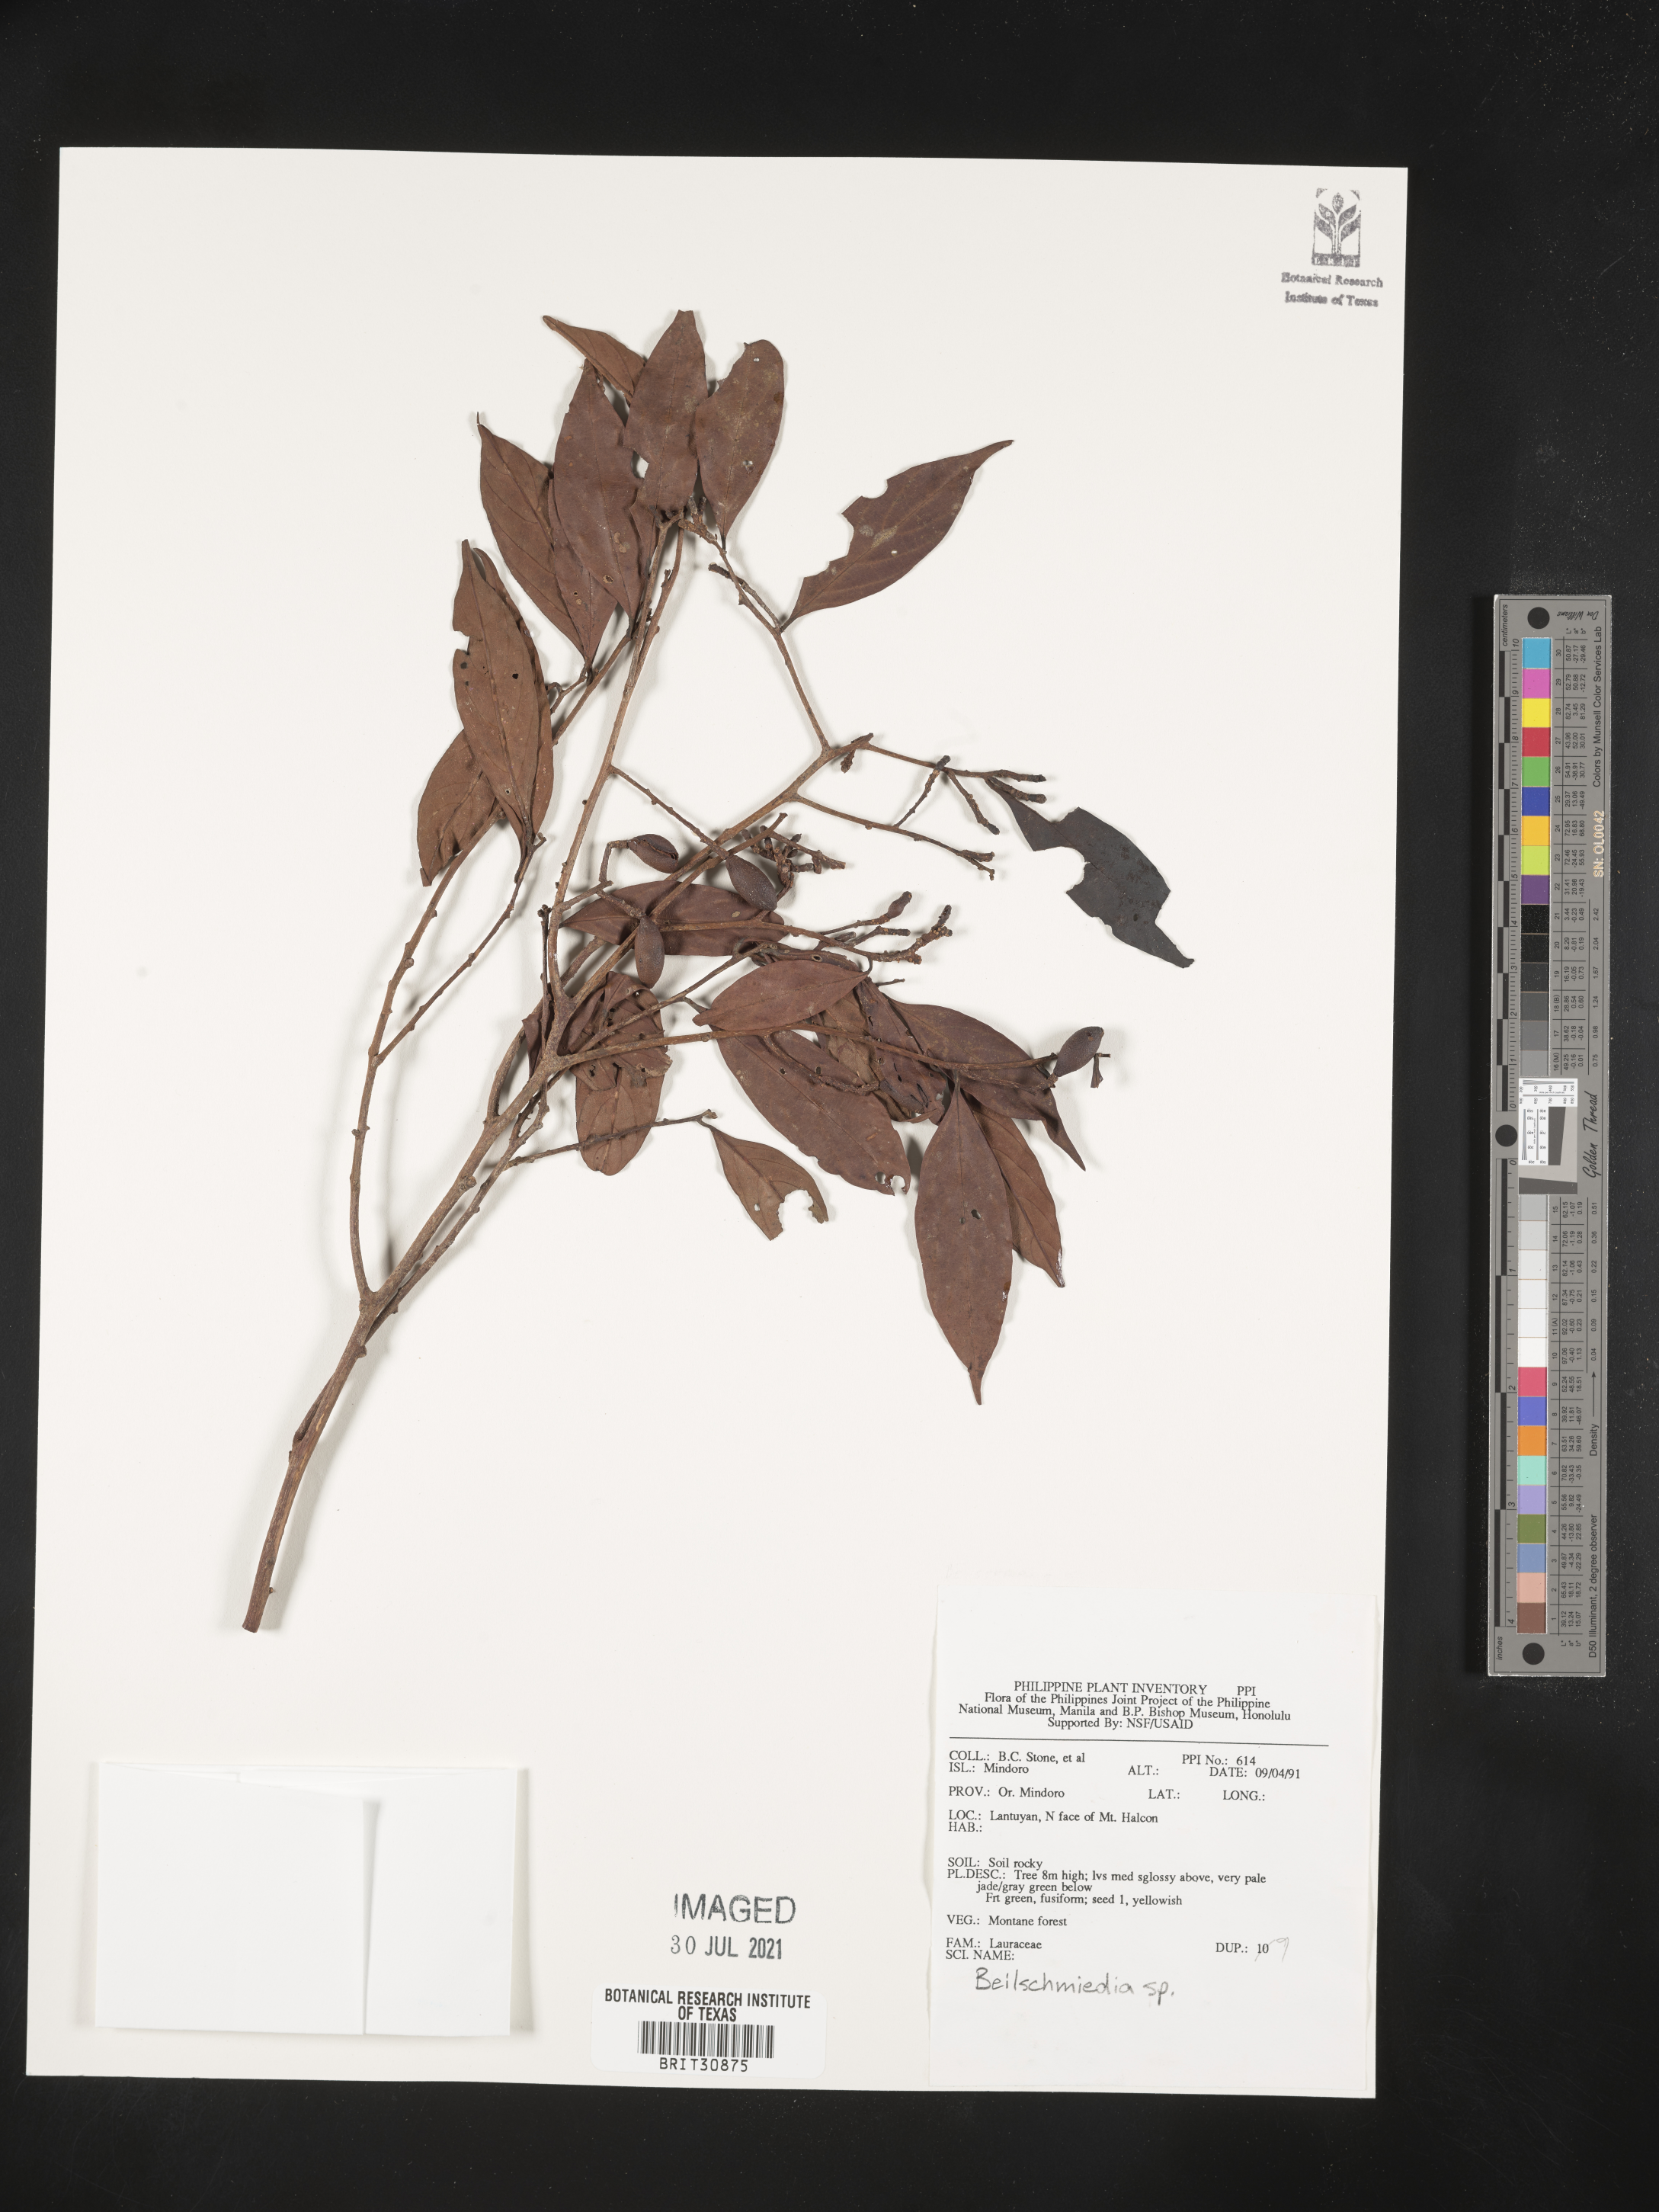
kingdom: Plantae
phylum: Tracheophyta
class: Magnoliopsida
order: Laurales
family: Lauraceae
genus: Beilschmiedia
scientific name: Beilschmiedia
